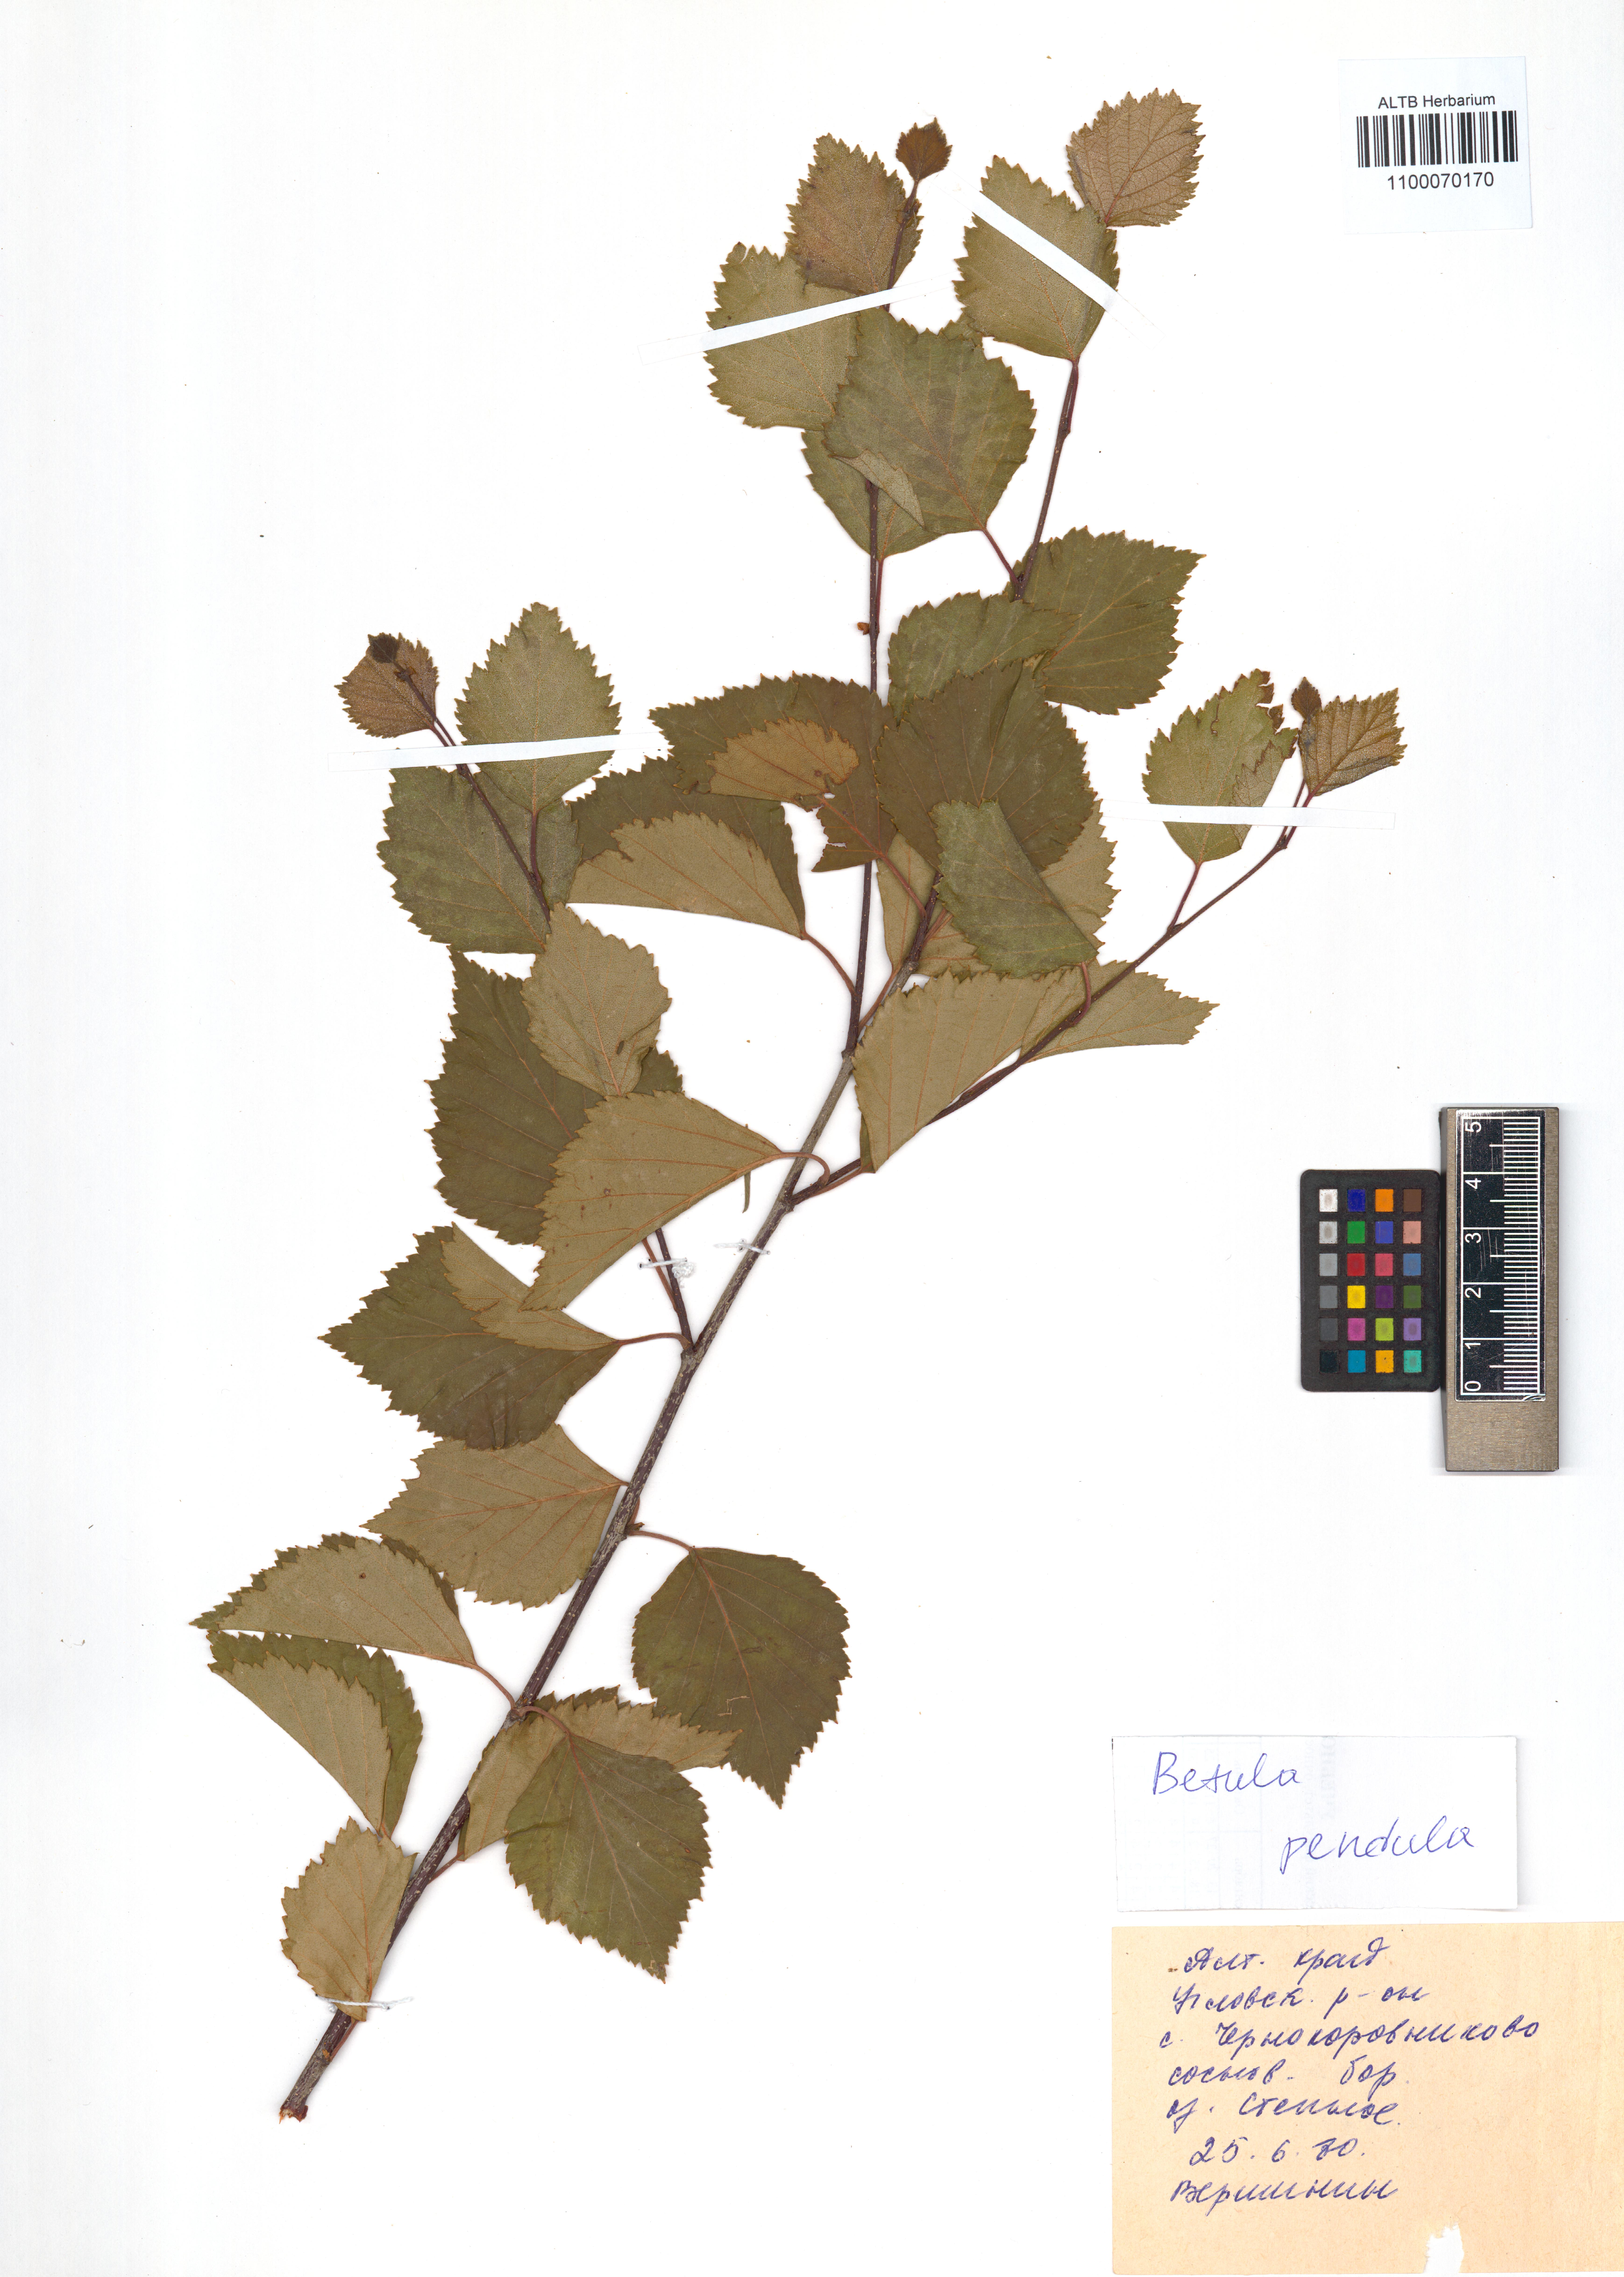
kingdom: Plantae
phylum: Tracheophyta
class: Magnoliopsida
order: Fagales
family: Betulaceae
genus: Betula
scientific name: Betula pendula
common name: Silver birch
